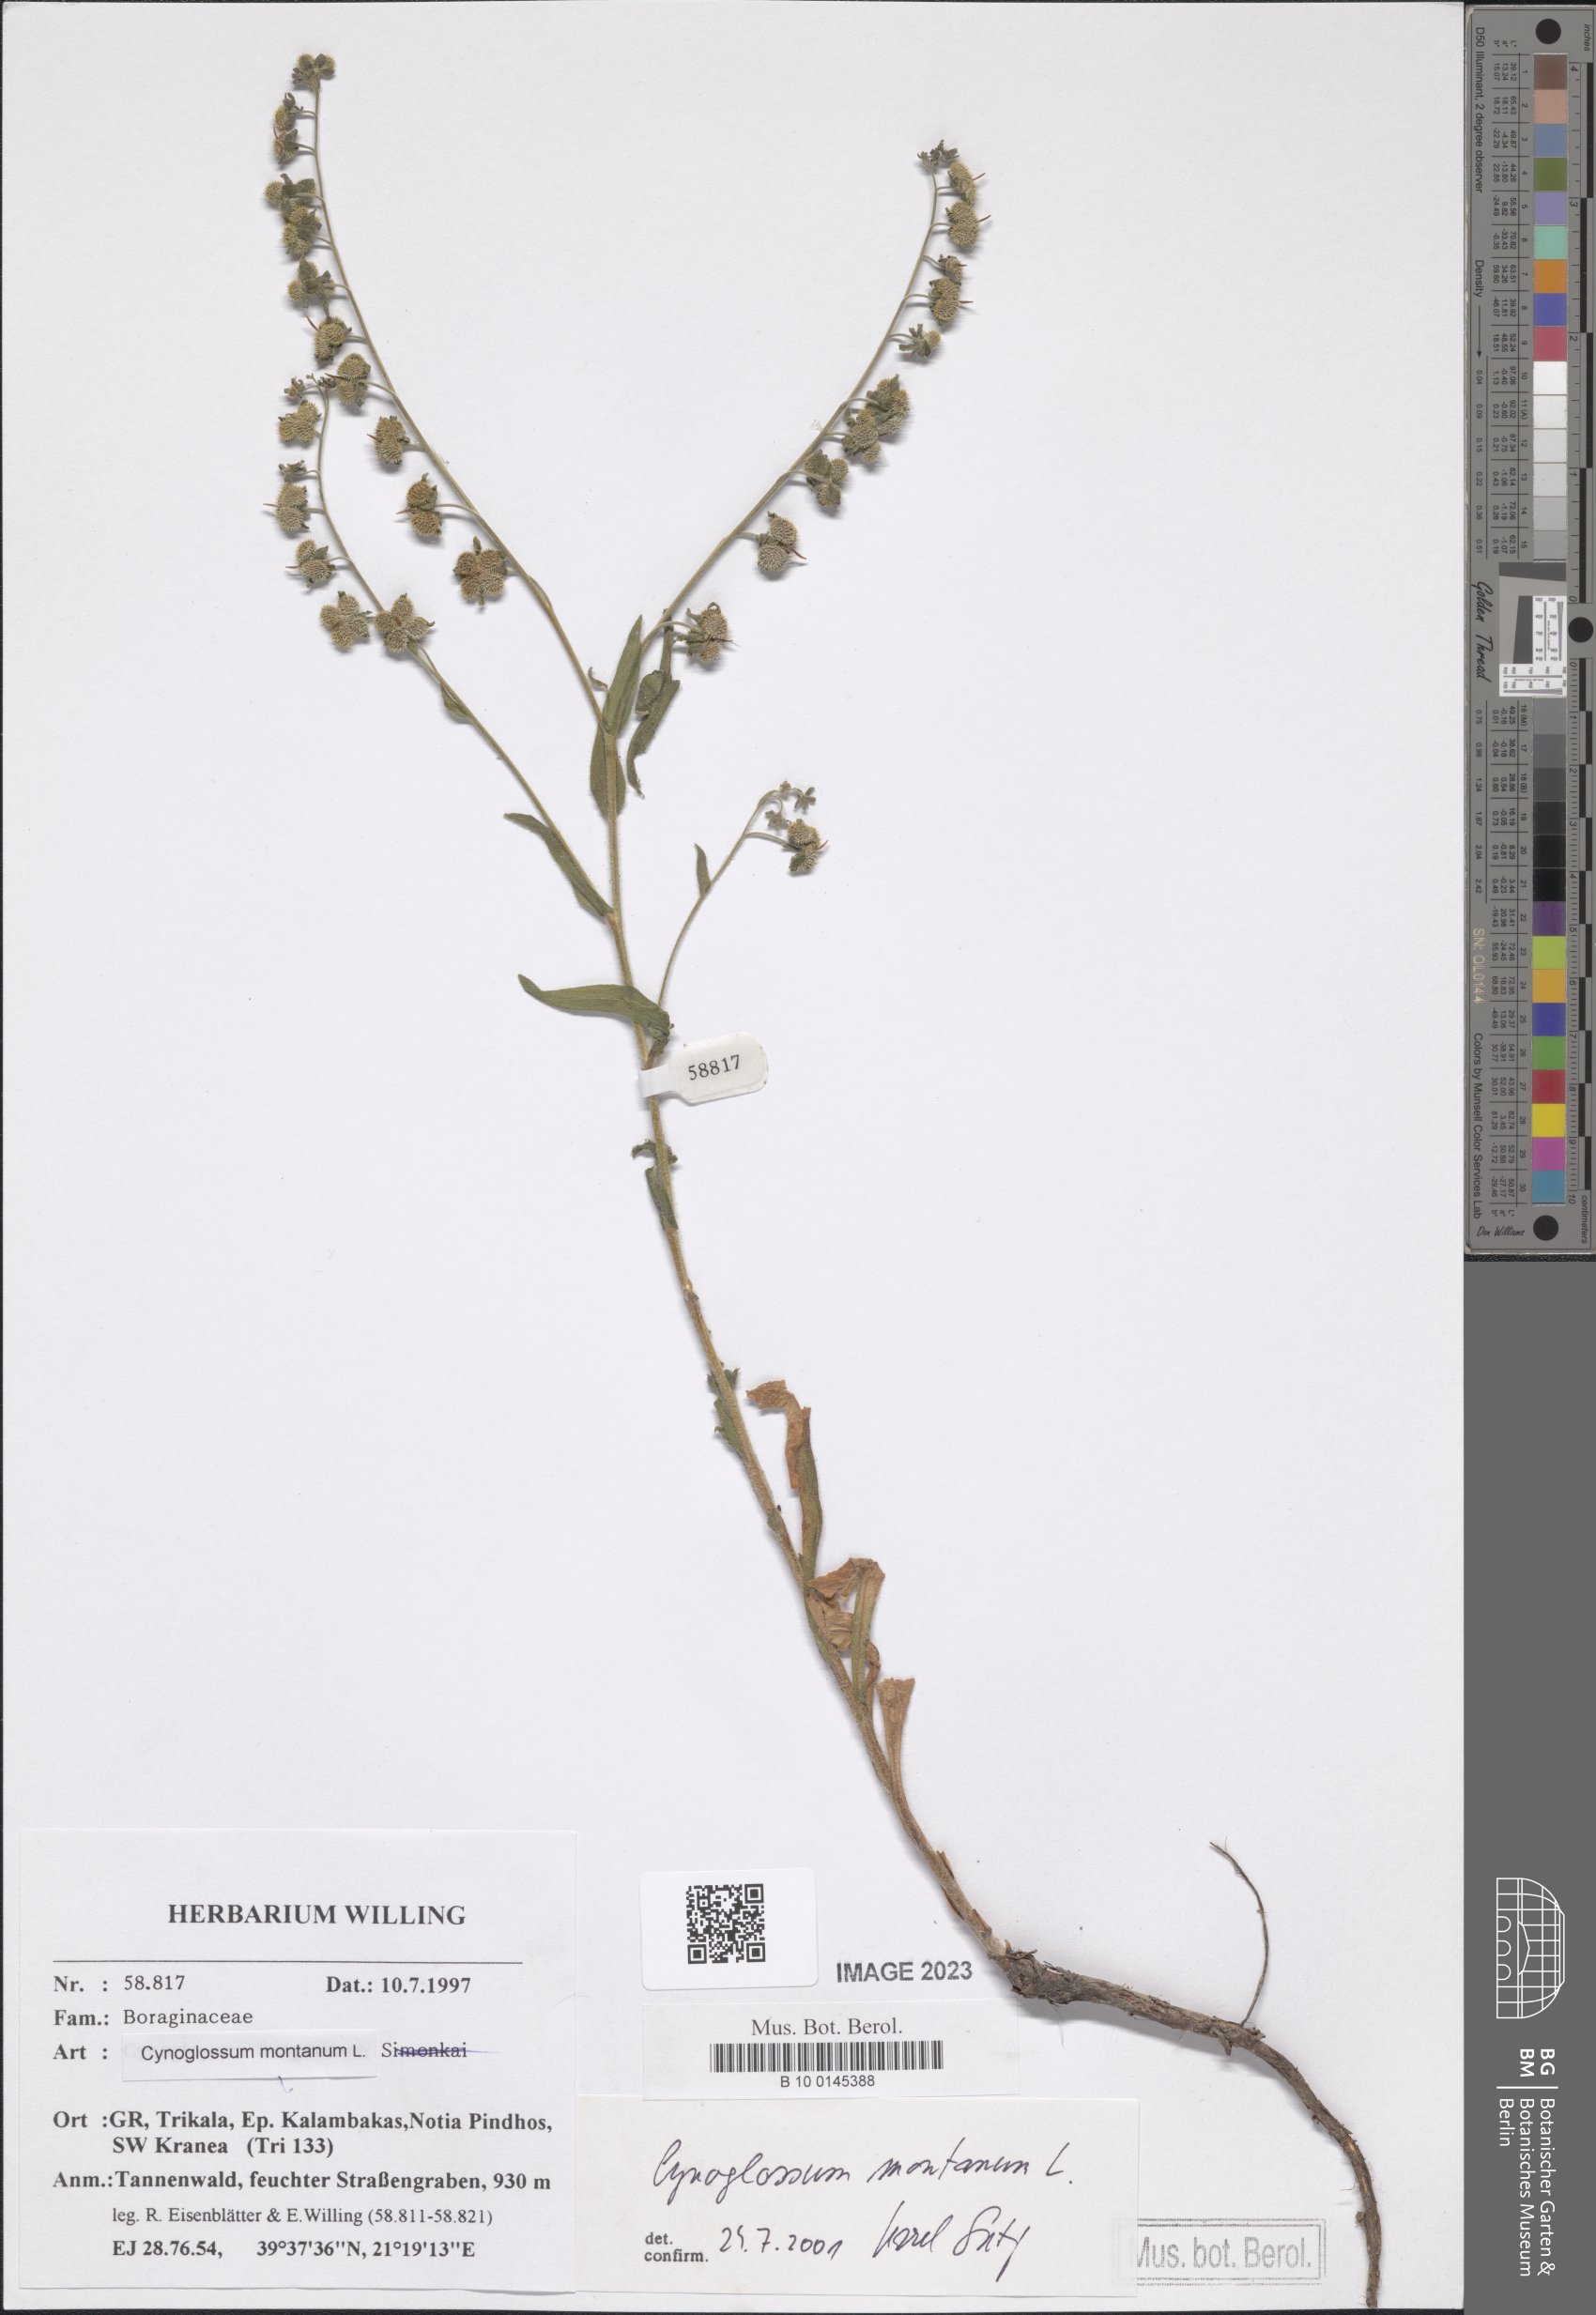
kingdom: Plantae
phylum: Tracheophyta
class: Magnoliopsida
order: Boraginales
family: Boraginaceae
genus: Cynoglossum
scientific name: Cynoglossum montanum
